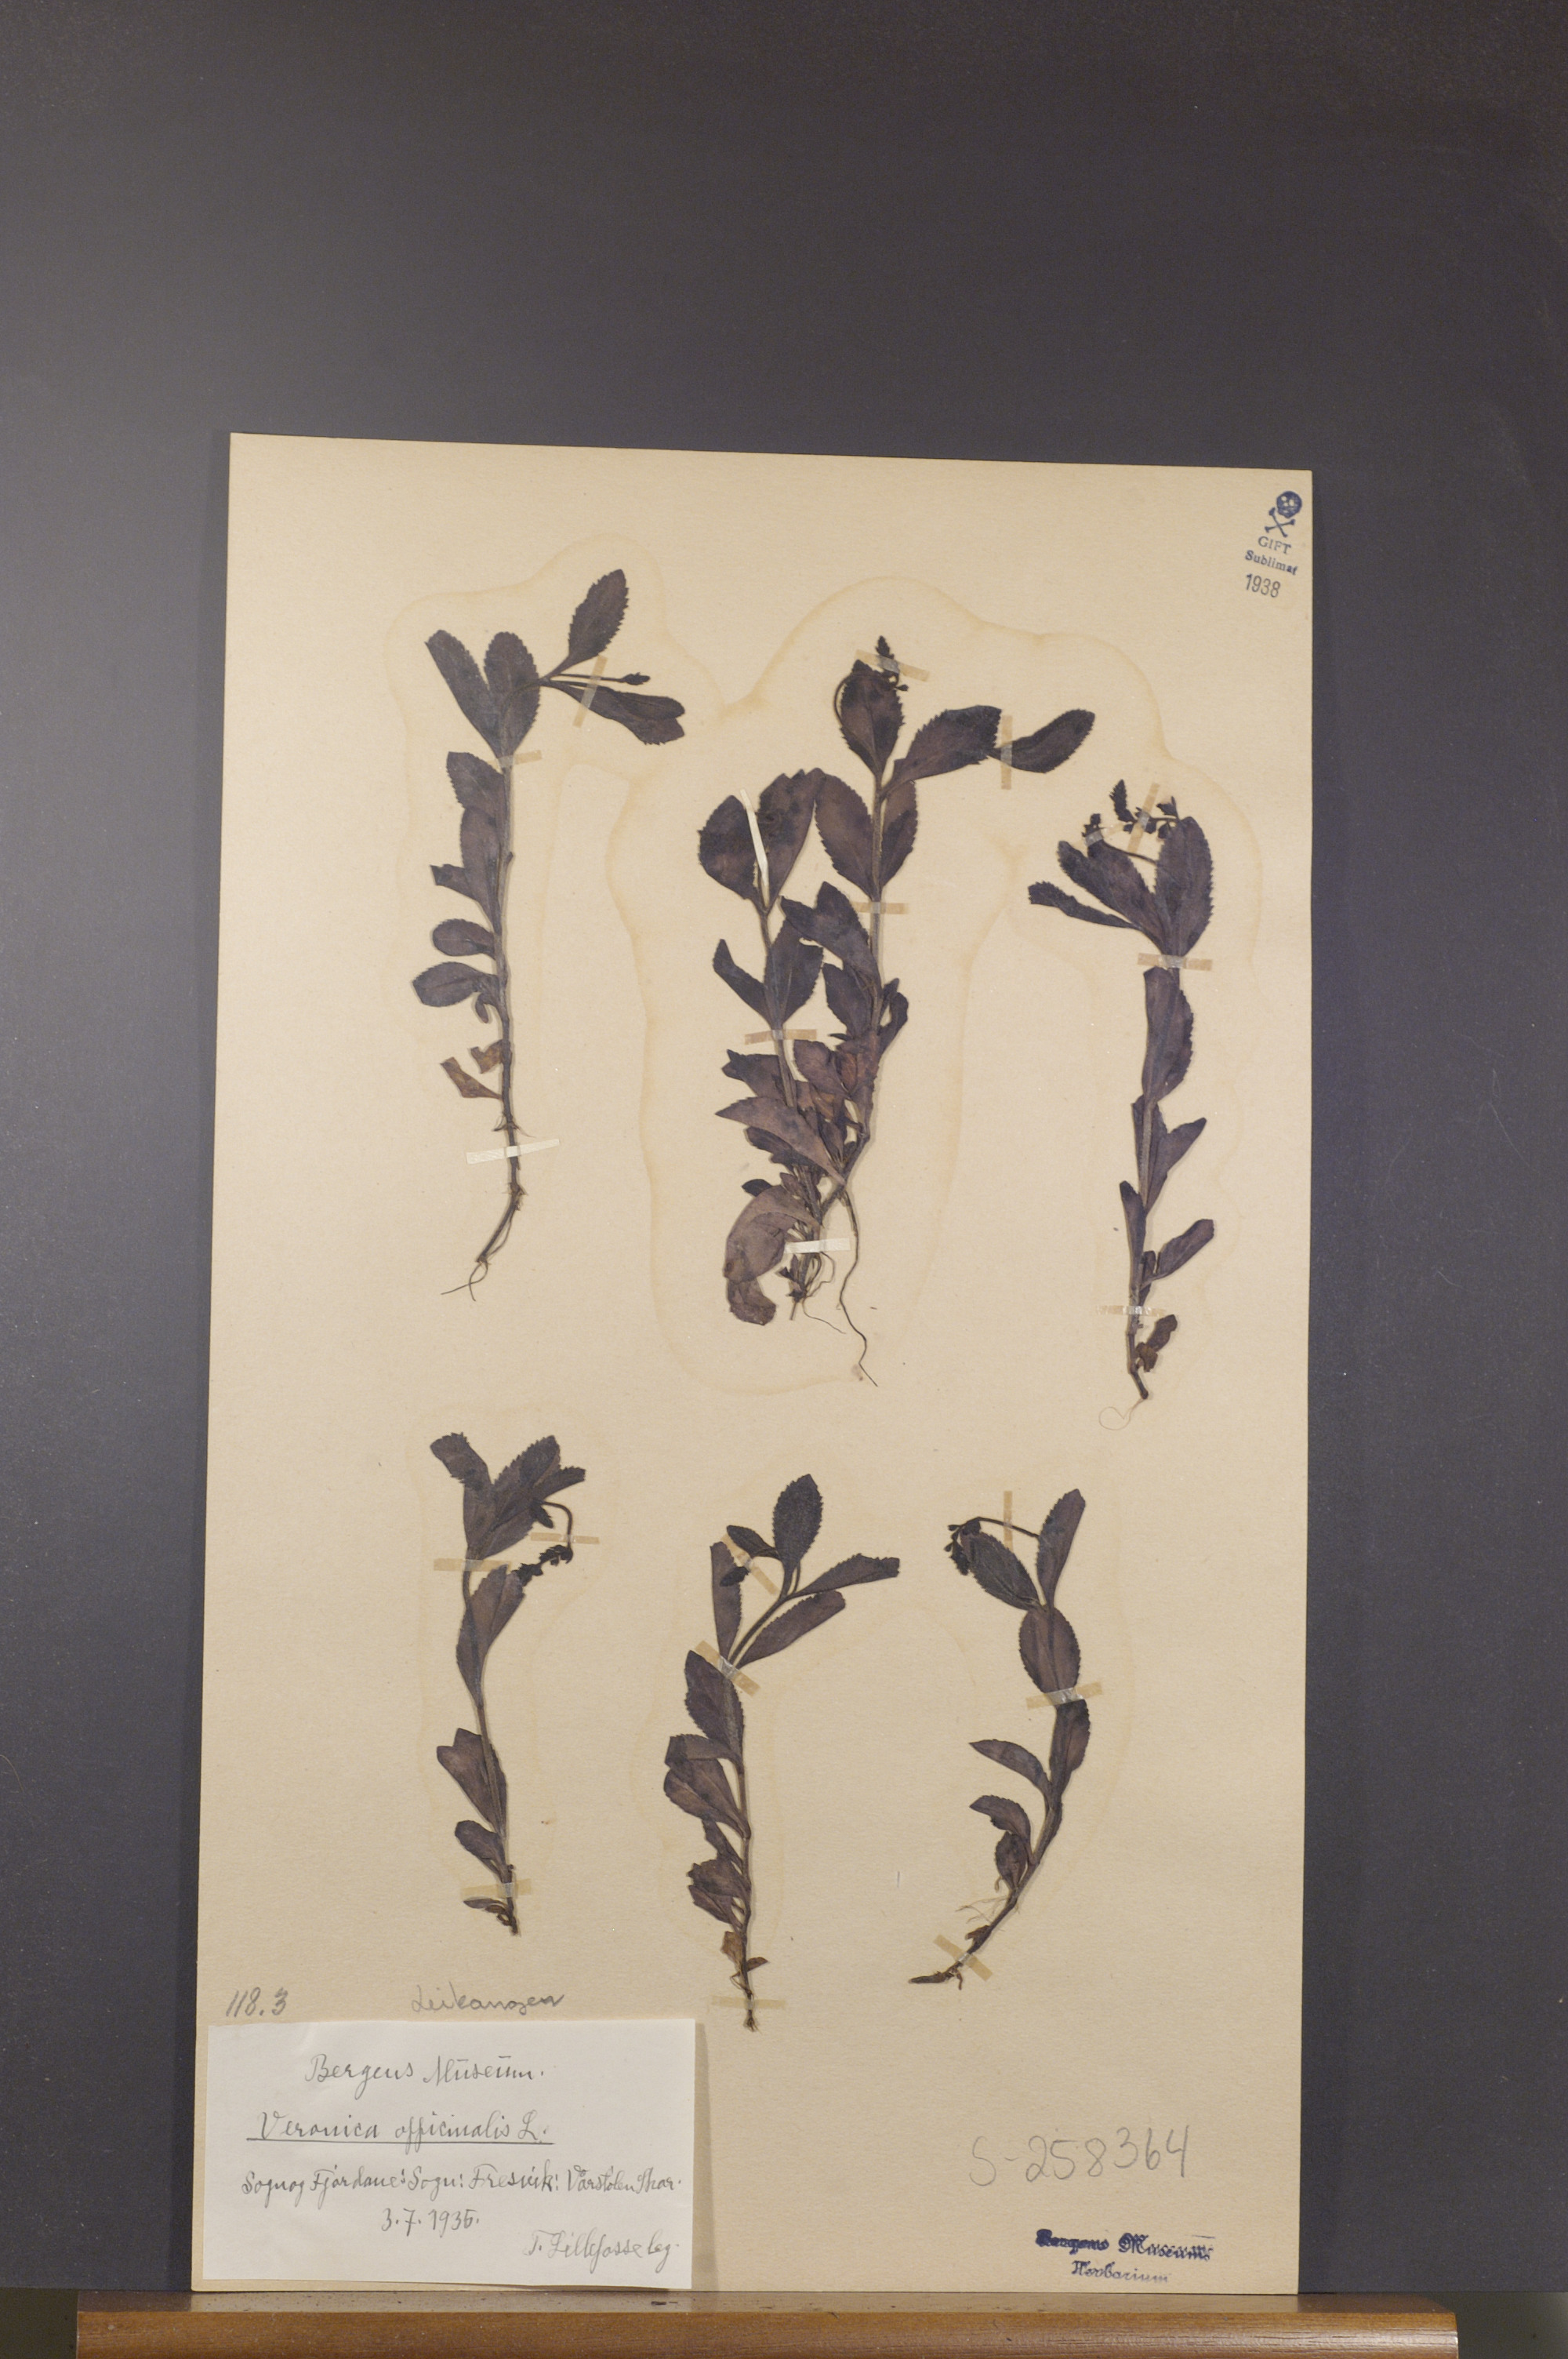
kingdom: Plantae
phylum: Tracheophyta
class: Magnoliopsida
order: Lamiales
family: Plantaginaceae
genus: Veronica
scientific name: Veronica officinalis
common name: Common speedwell
